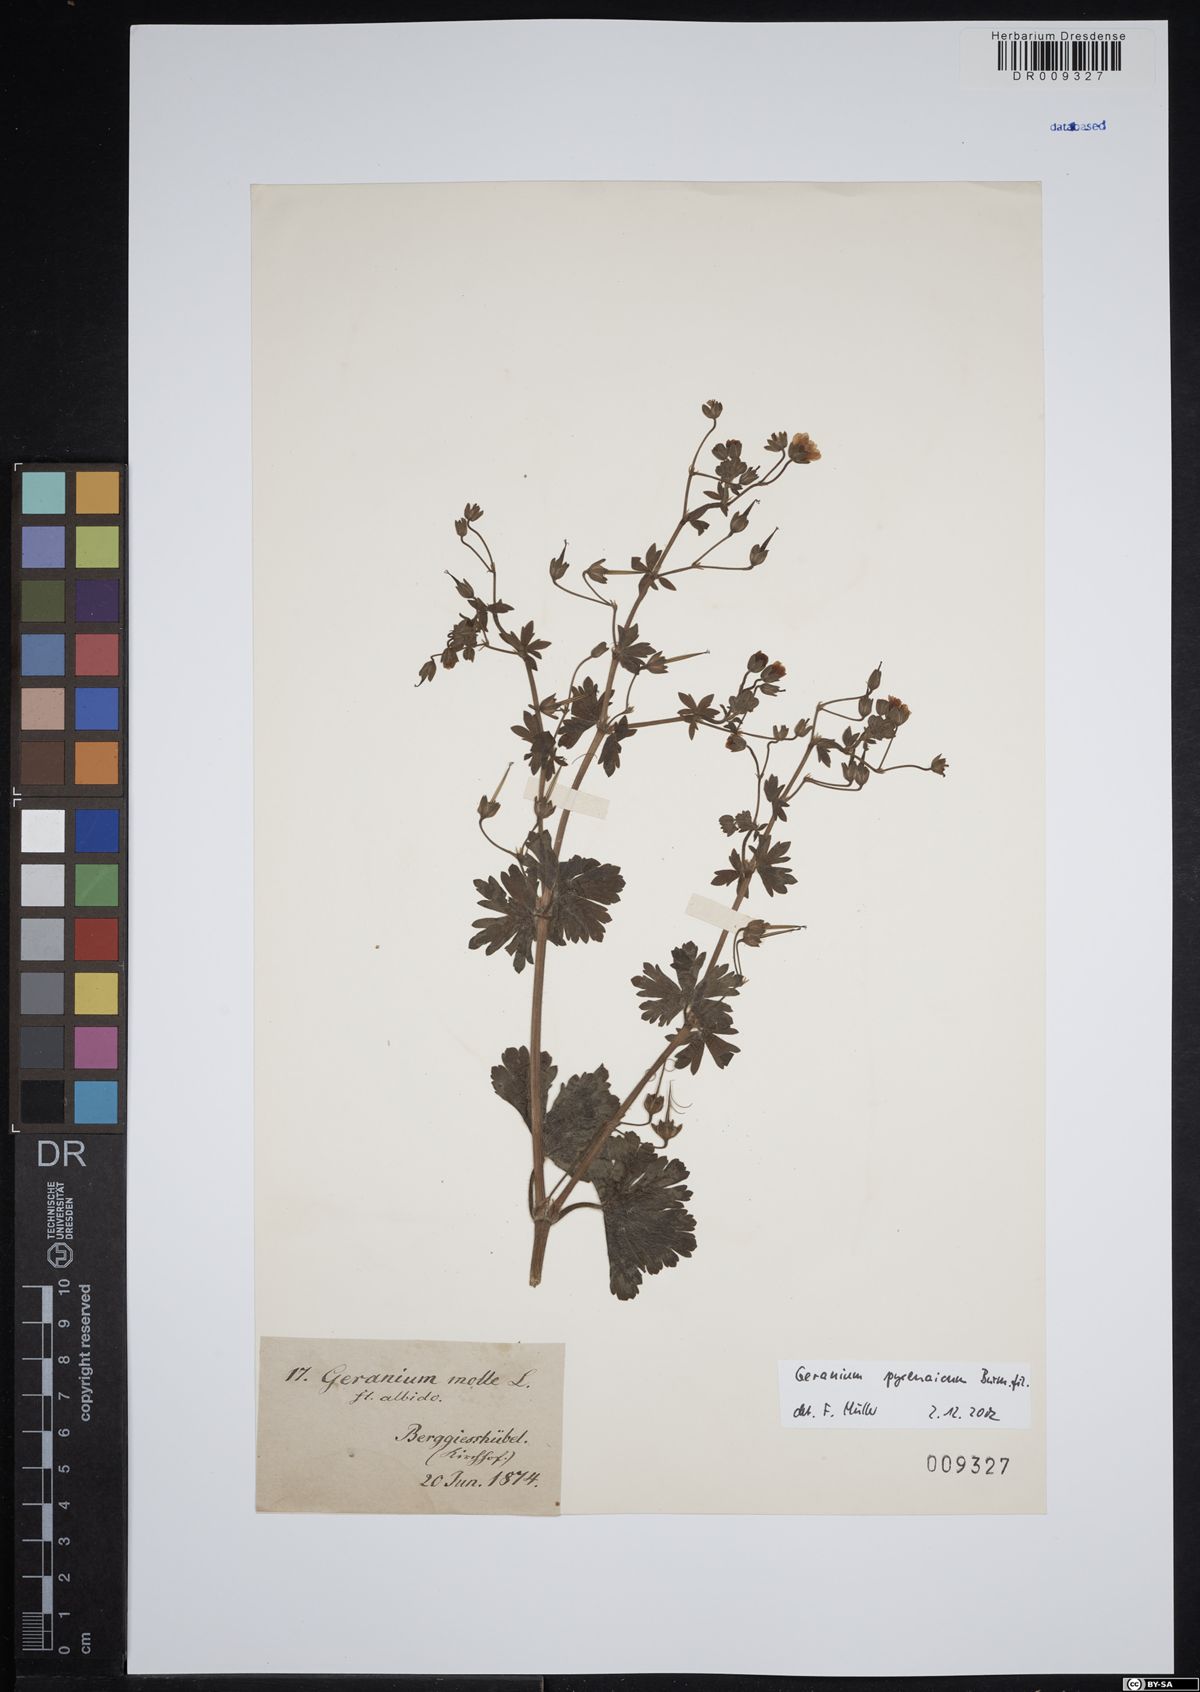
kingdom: Plantae
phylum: Tracheophyta
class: Magnoliopsida
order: Geraniales
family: Geraniaceae
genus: Geranium
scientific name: Geranium pyrenaicum
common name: Hedgerow crane's-bill
